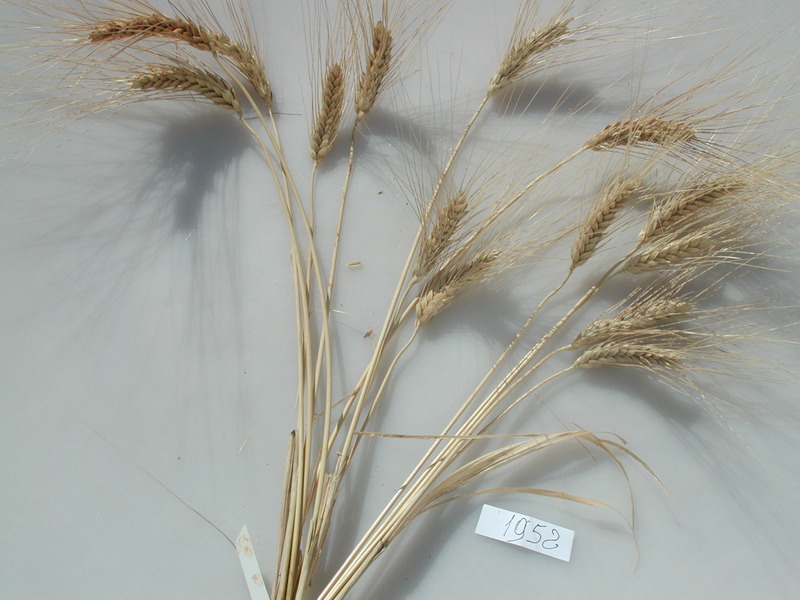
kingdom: Plantae
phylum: Tracheophyta
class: Liliopsida
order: Poales
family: Poaceae
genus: Triticum
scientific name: Triticum turgidum
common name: Wheat
